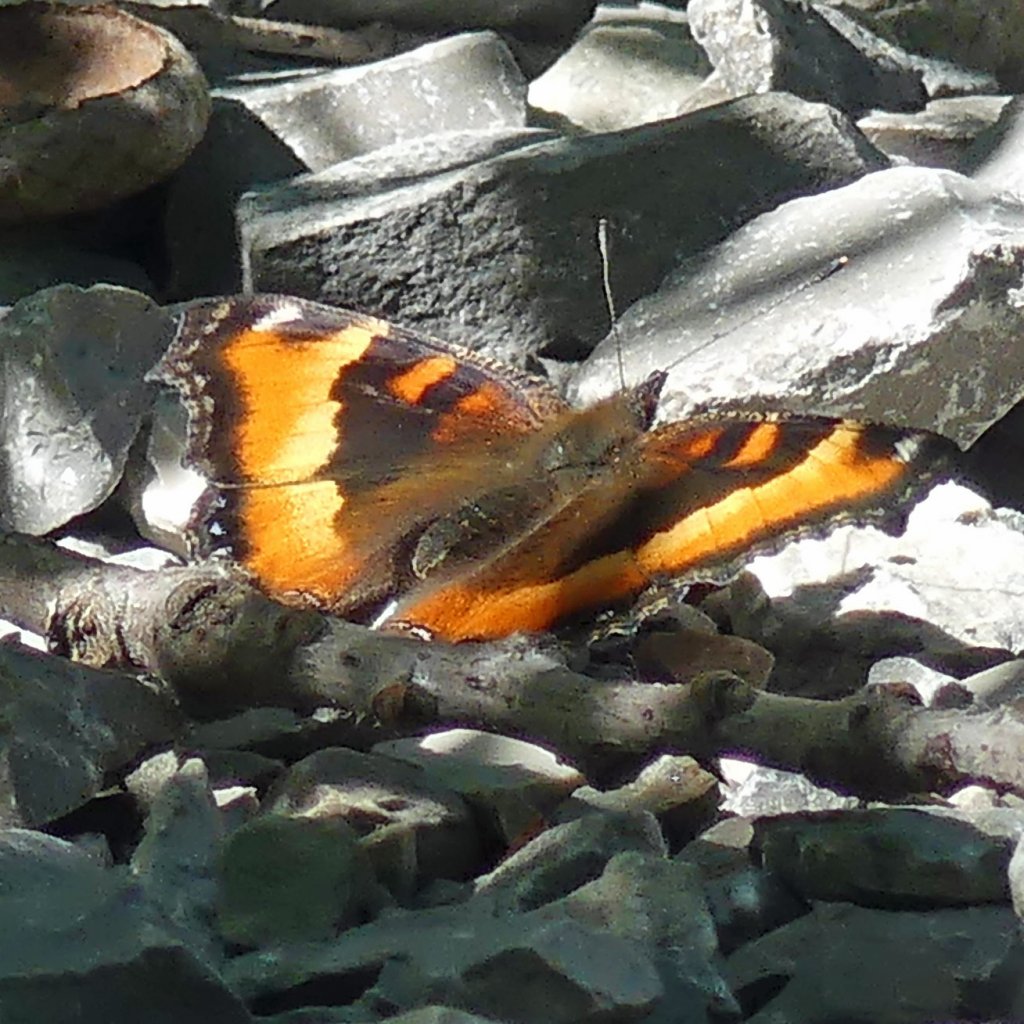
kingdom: Animalia
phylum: Arthropoda
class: Insecta
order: Lepidoptera
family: Nymphalidae
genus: Aglais
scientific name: Aglais milberti
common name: Milbert's Tortoiseshell
